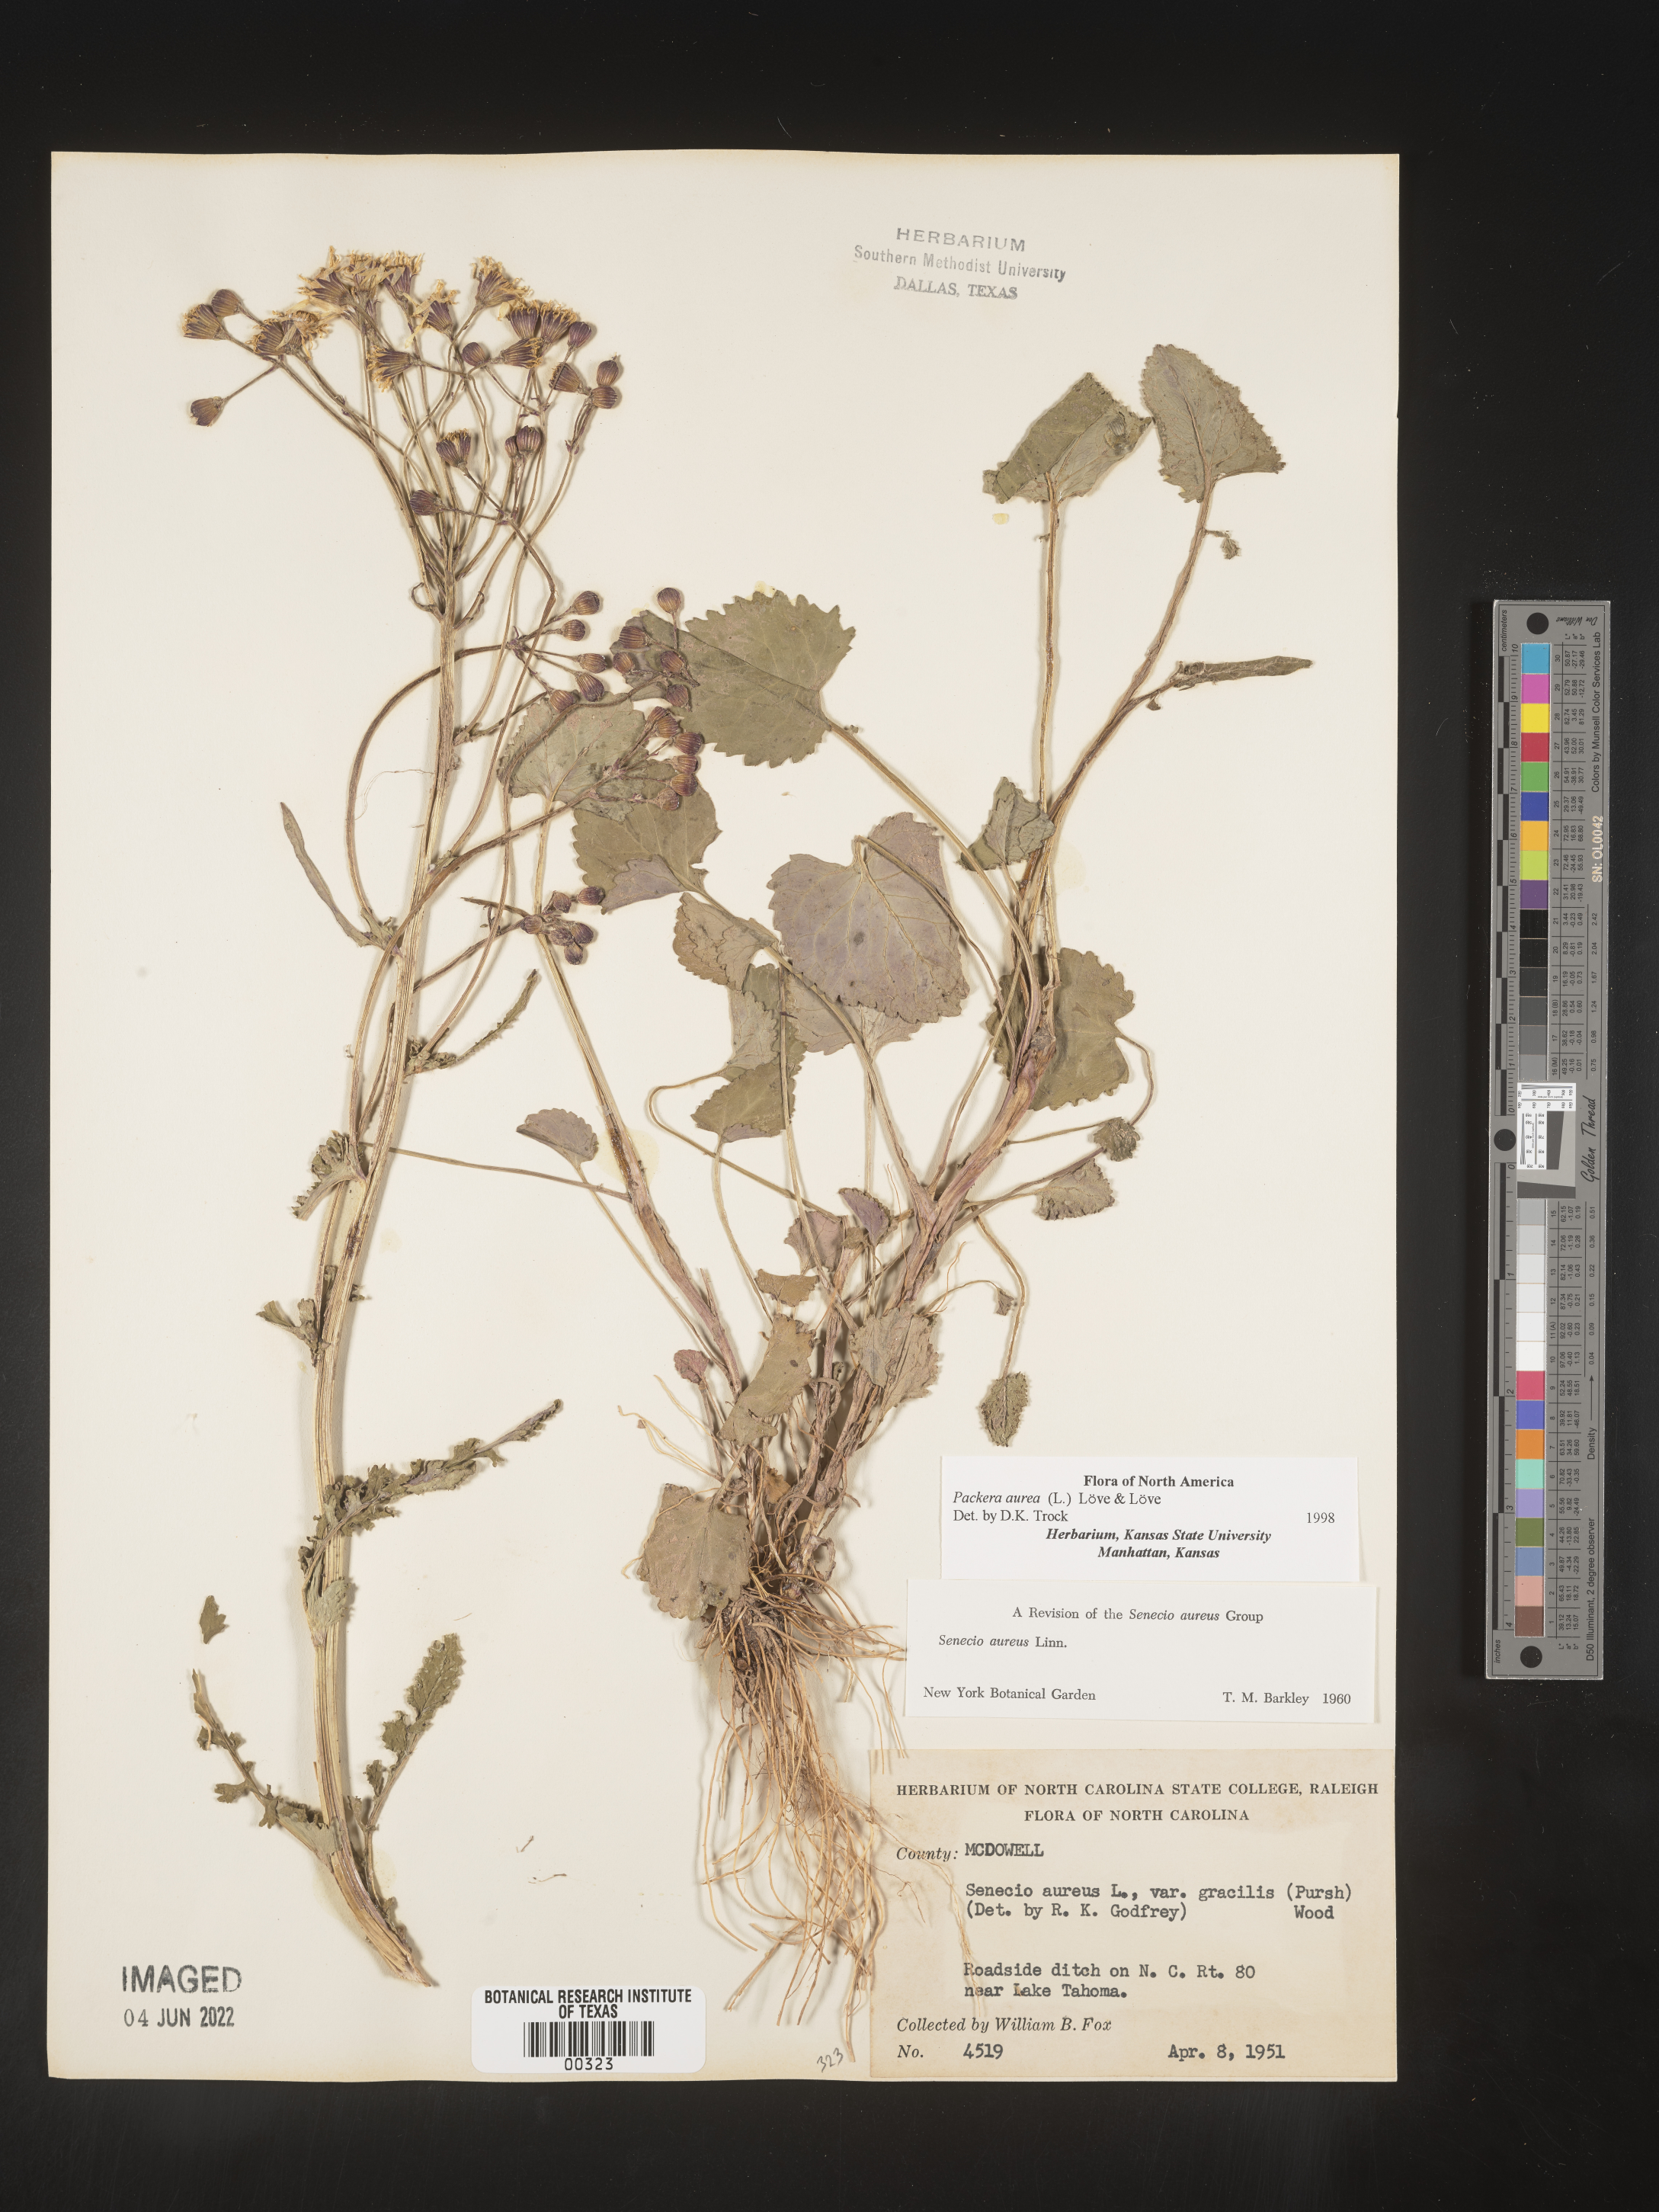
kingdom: Plantae
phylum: Tracheophyta
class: Magnoliopsida
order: Asterales
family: Asteraceae
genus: Packera
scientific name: Packera aurea
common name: Golden groundsel
